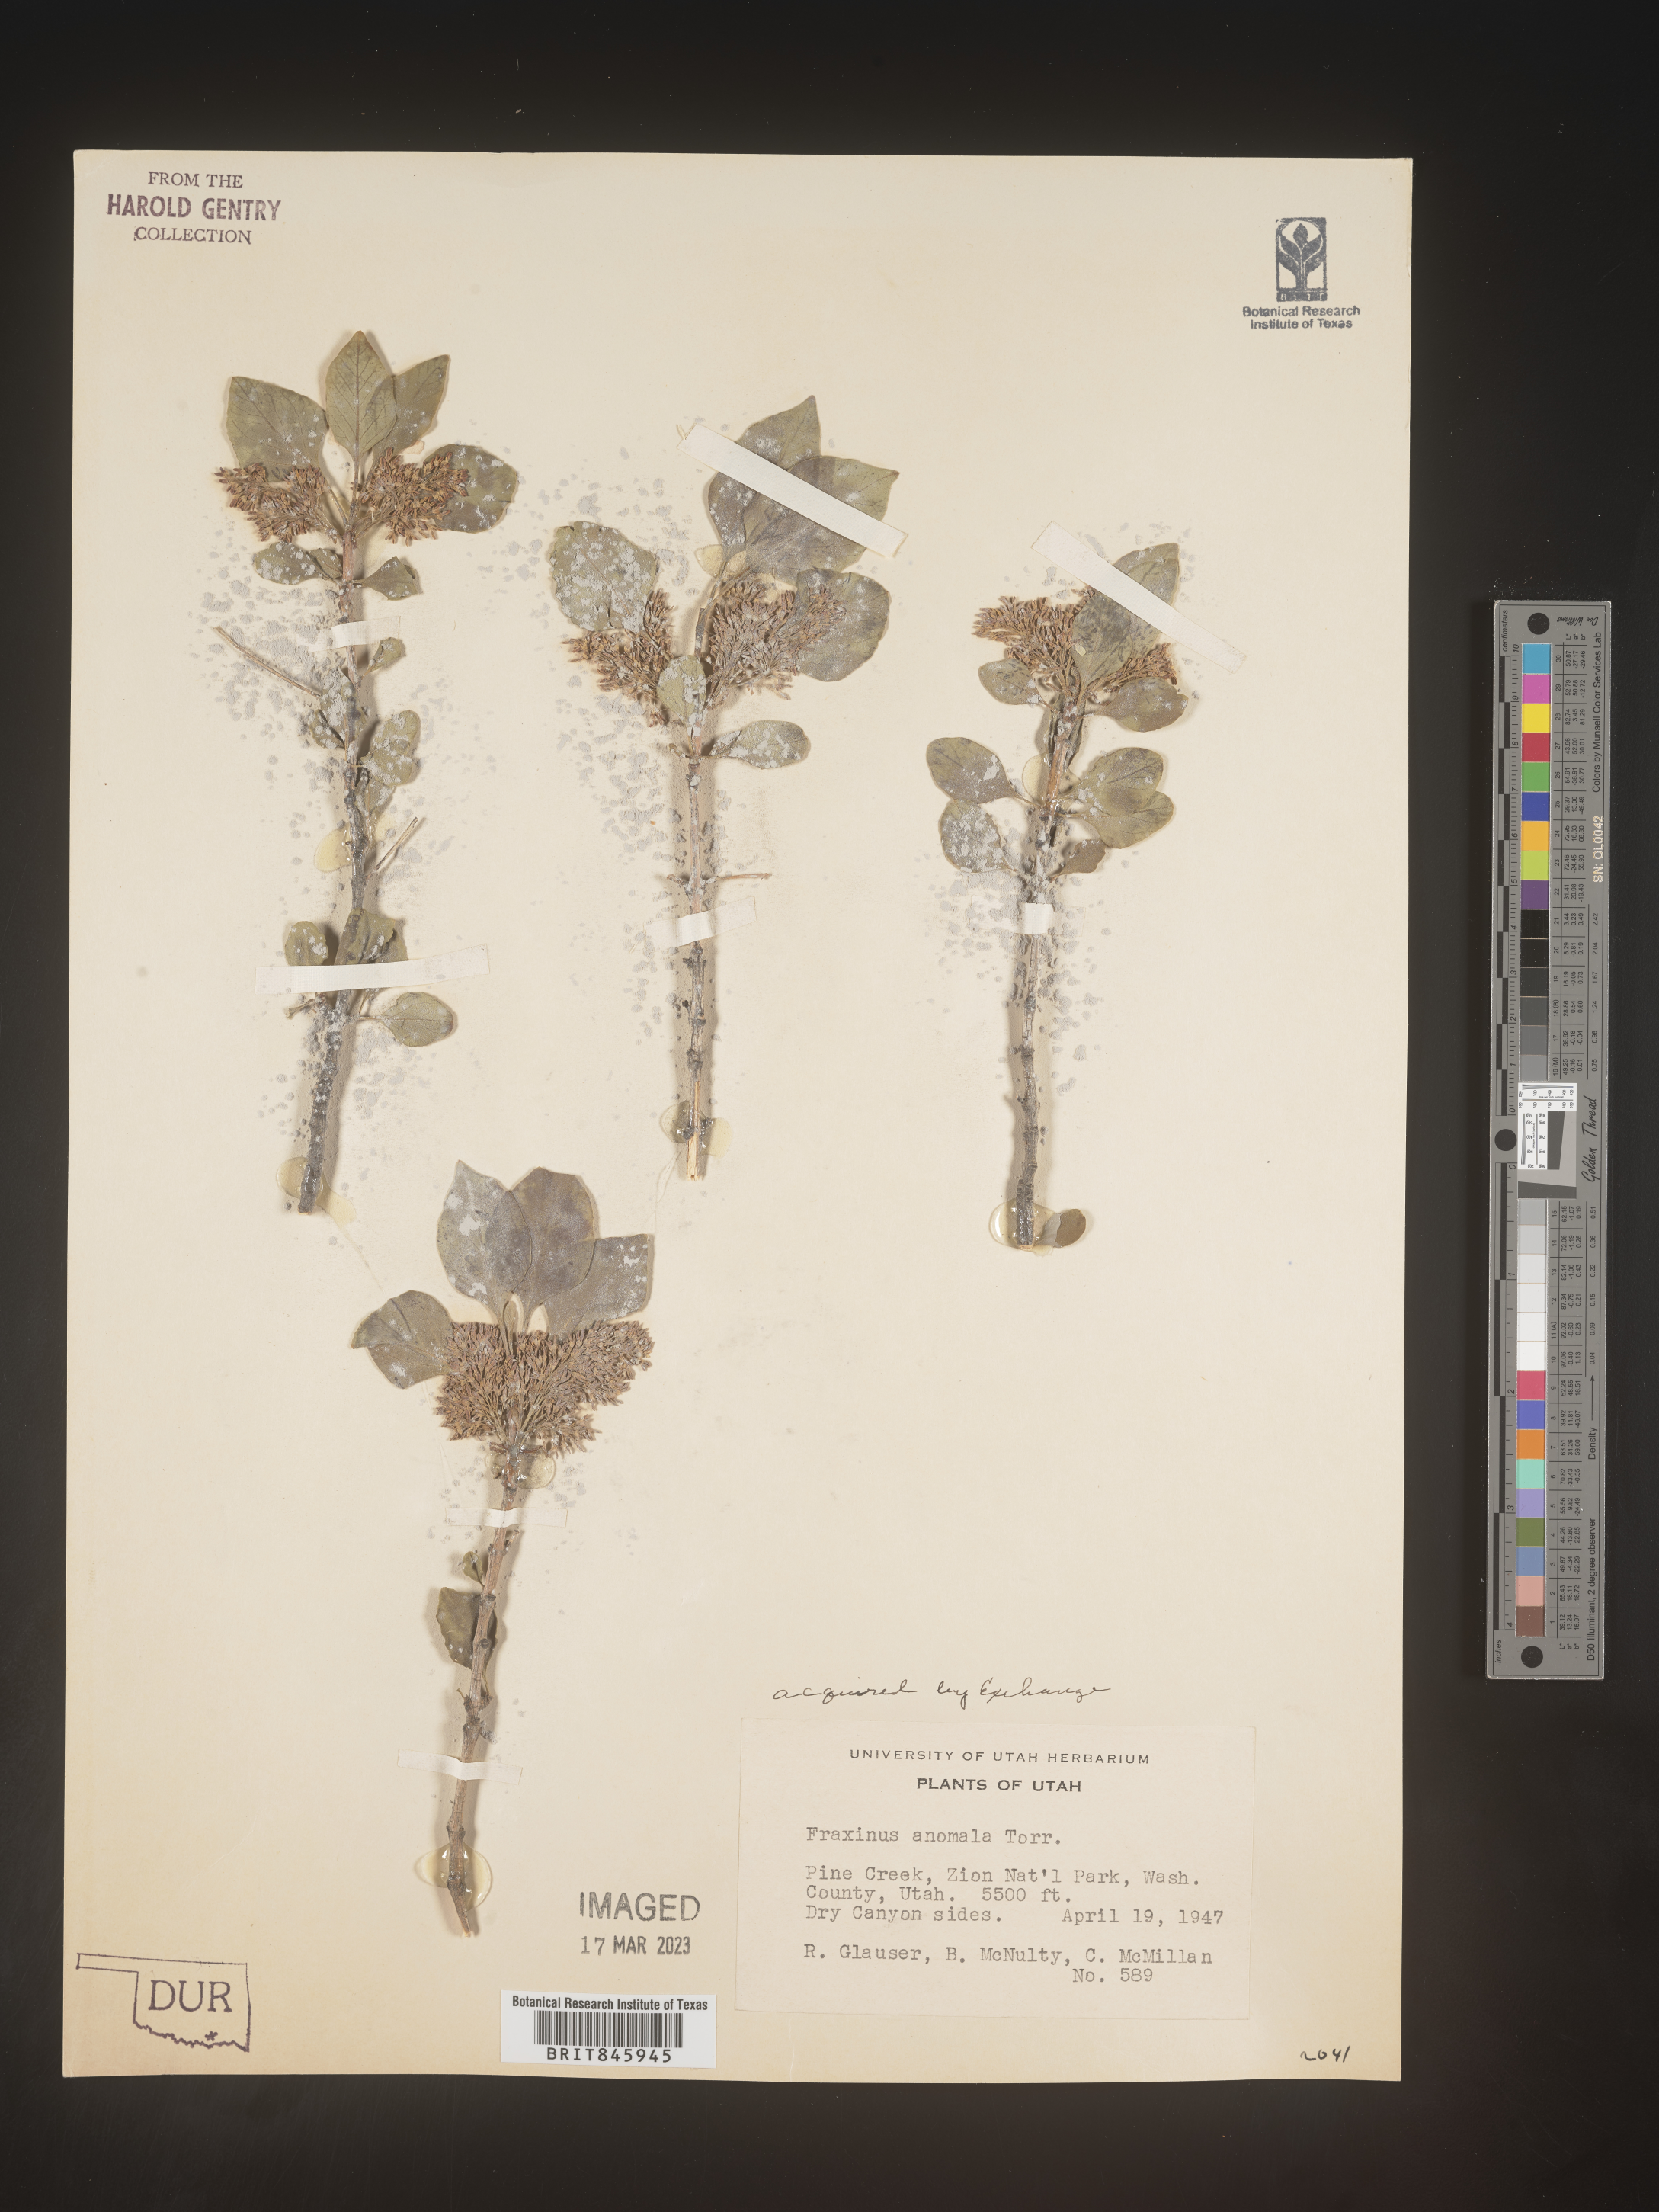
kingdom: Plantae
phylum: Tracheophyta
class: Magnoliopsida
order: Lamiales
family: Oleaceae
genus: Fraxinus
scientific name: Fraxinus anomala
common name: Utah ash
